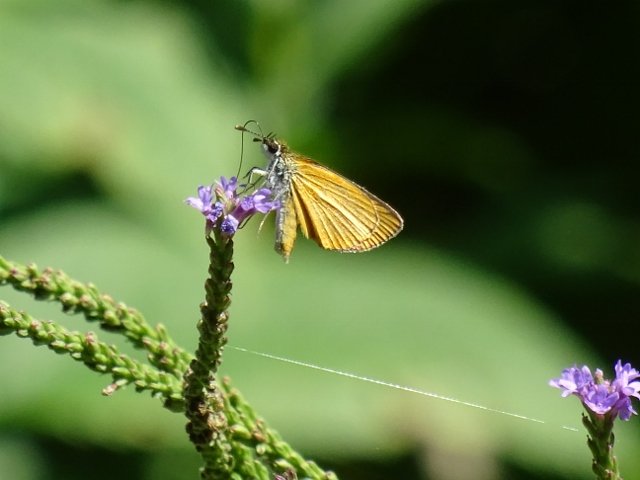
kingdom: Animalia
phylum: Arthropoda
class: Insecta
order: Lepidoptera
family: Hesperiidae
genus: Ancyloxypha
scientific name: Ancyloxypha numitor
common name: Least Skipper
